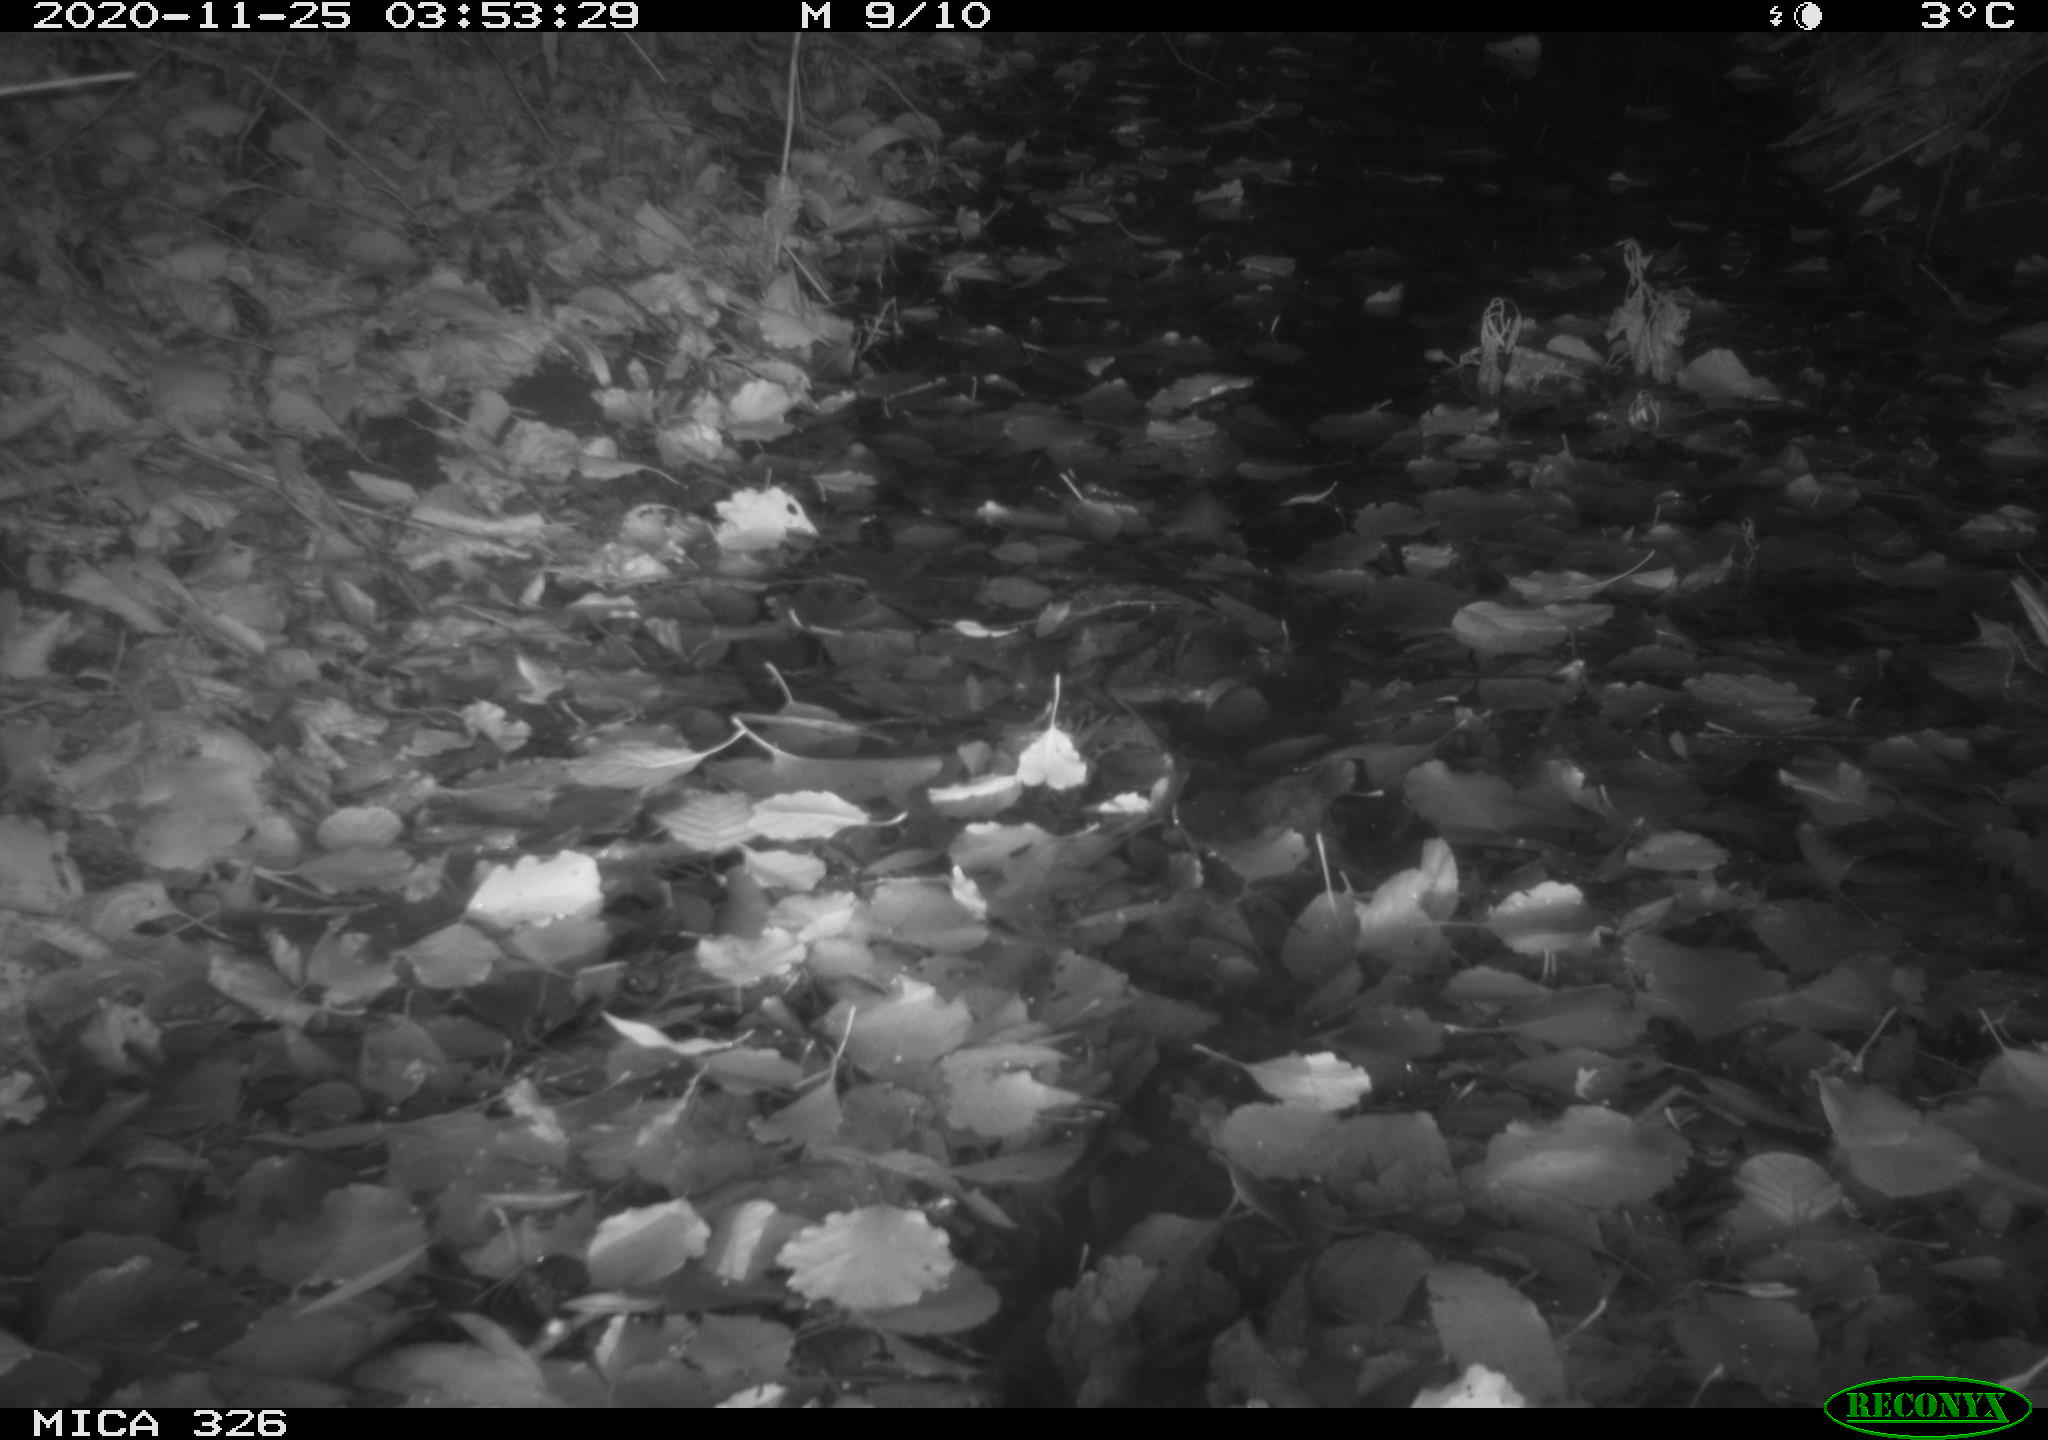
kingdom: Animalia
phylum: Chordata
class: Mammalia
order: Rodentia
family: Muridae
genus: Rattus
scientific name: Rattus norvegicus
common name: Brown rat
